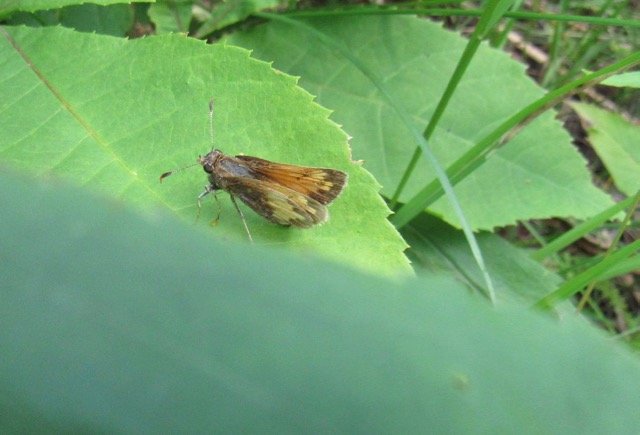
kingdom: Animalia
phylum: Arthropoda
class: Insecta
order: Lepidoptera
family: Hesperiidae
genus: Lon
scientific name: Lon hobomok
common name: Hobomok Skipper
